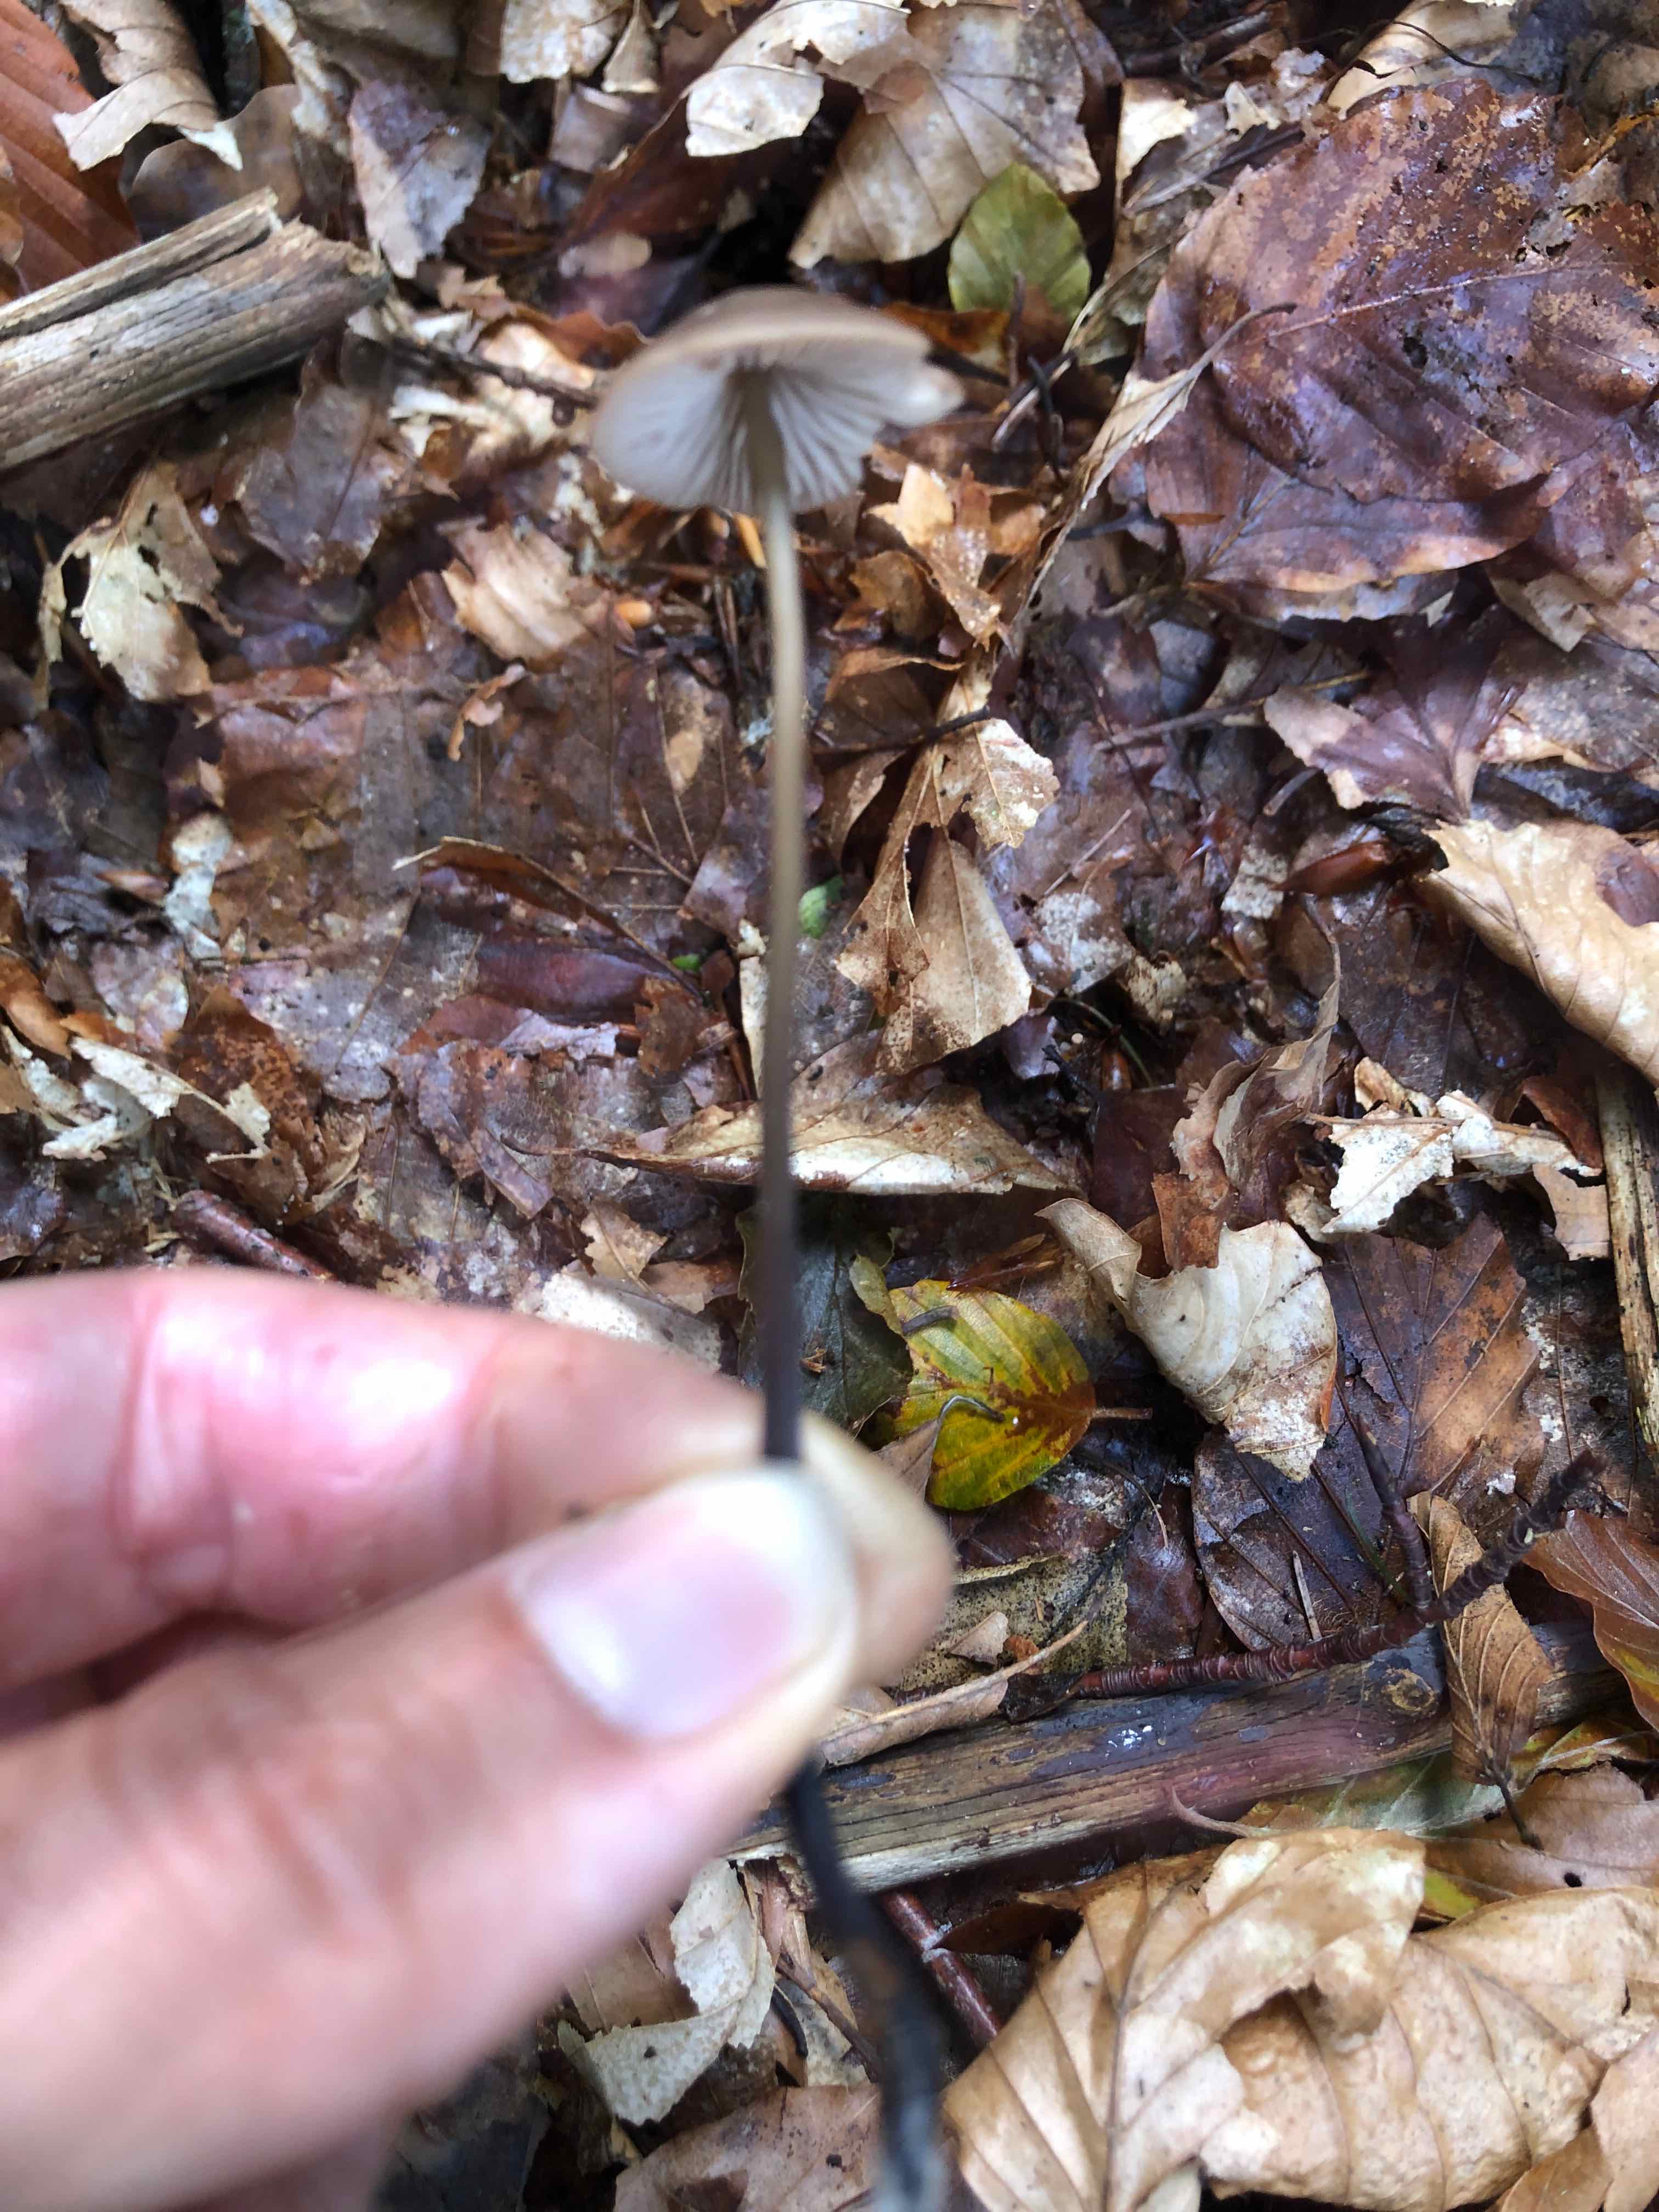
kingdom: Fungi
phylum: Basidiomycota
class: Agaricomycetes
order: Agaricales
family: Omphalotaceae
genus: Mycetinis
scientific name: Mycetinis alliaceus
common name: stor løghat
